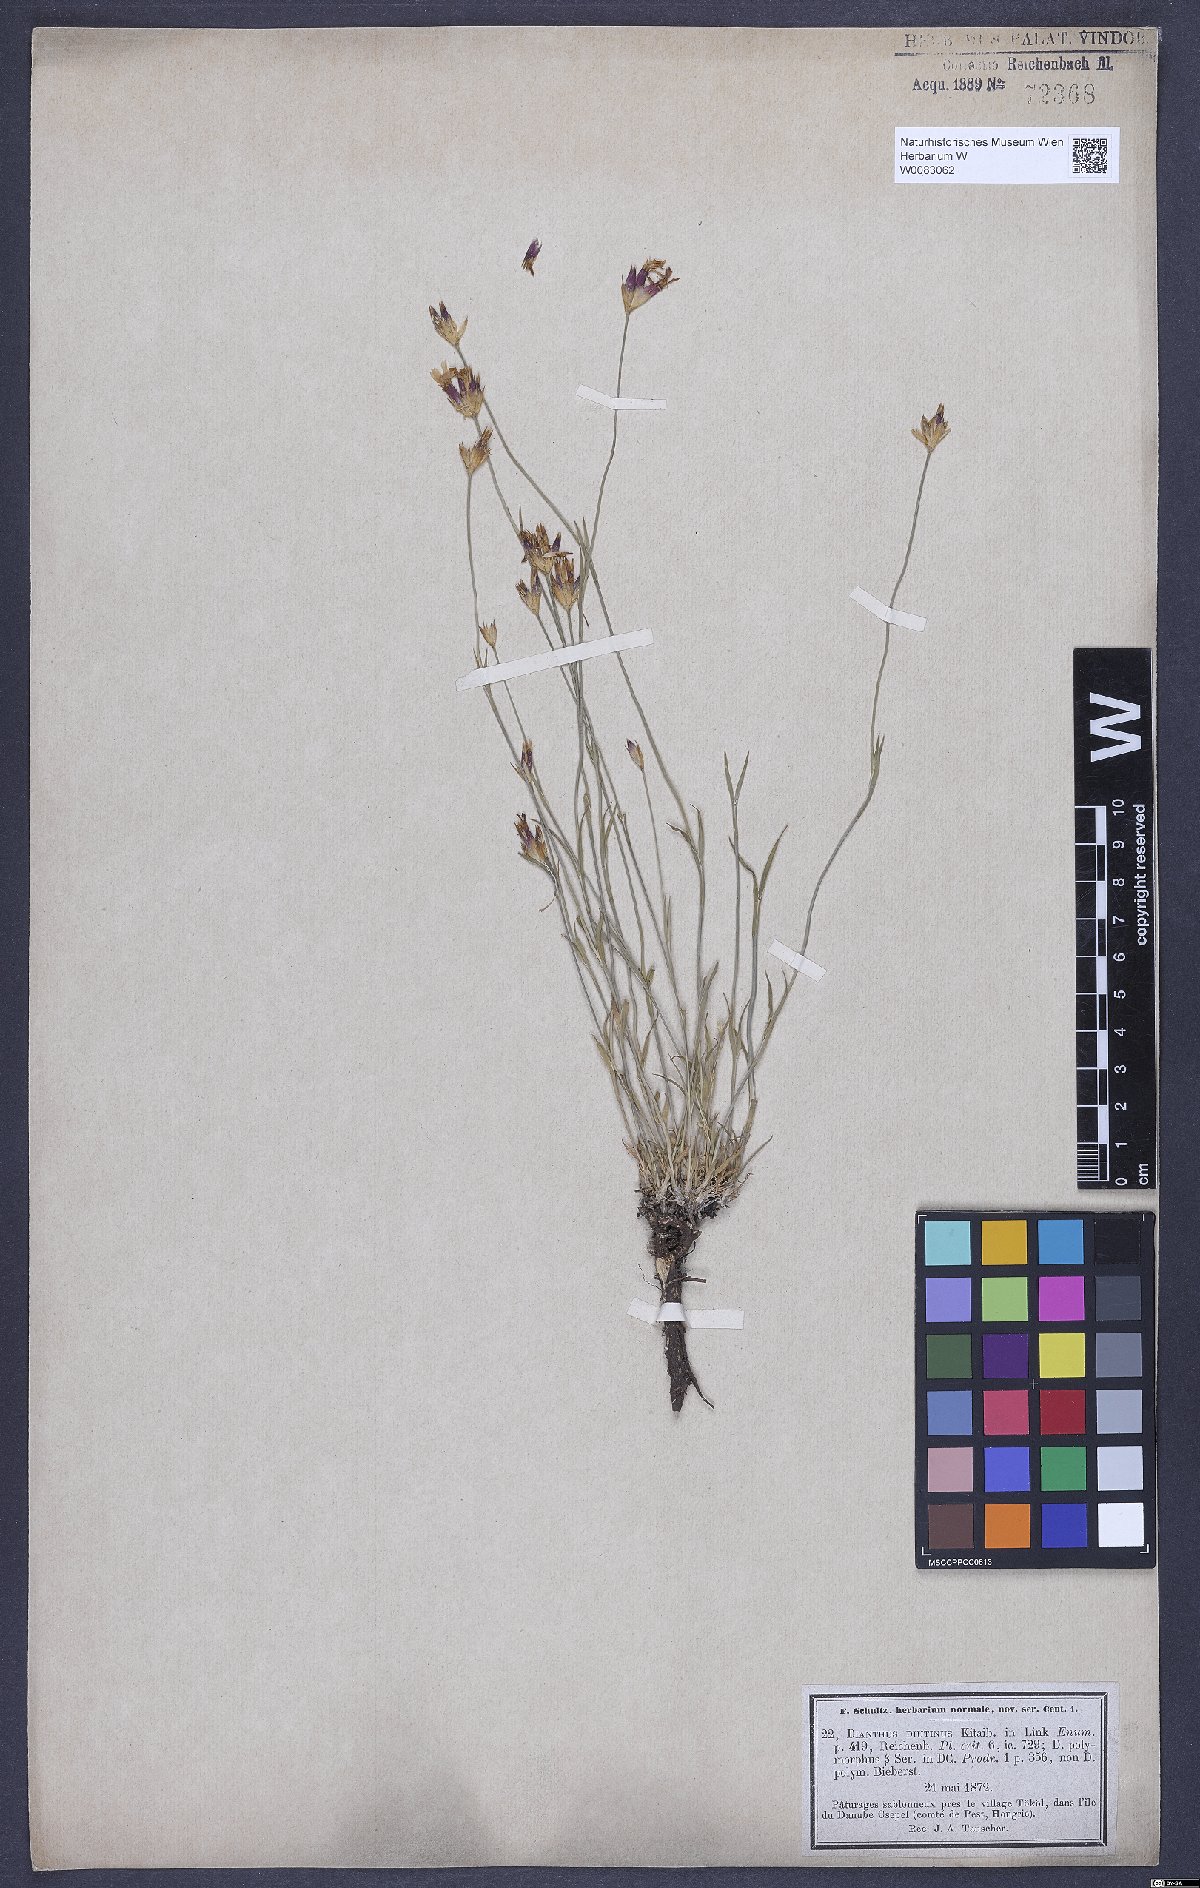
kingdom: Plantae
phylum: Tracheophyta
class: Magnoliopsida
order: Caryophyllales
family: Caryophyllaceae
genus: Dianthus
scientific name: Dianthus polymorphus
